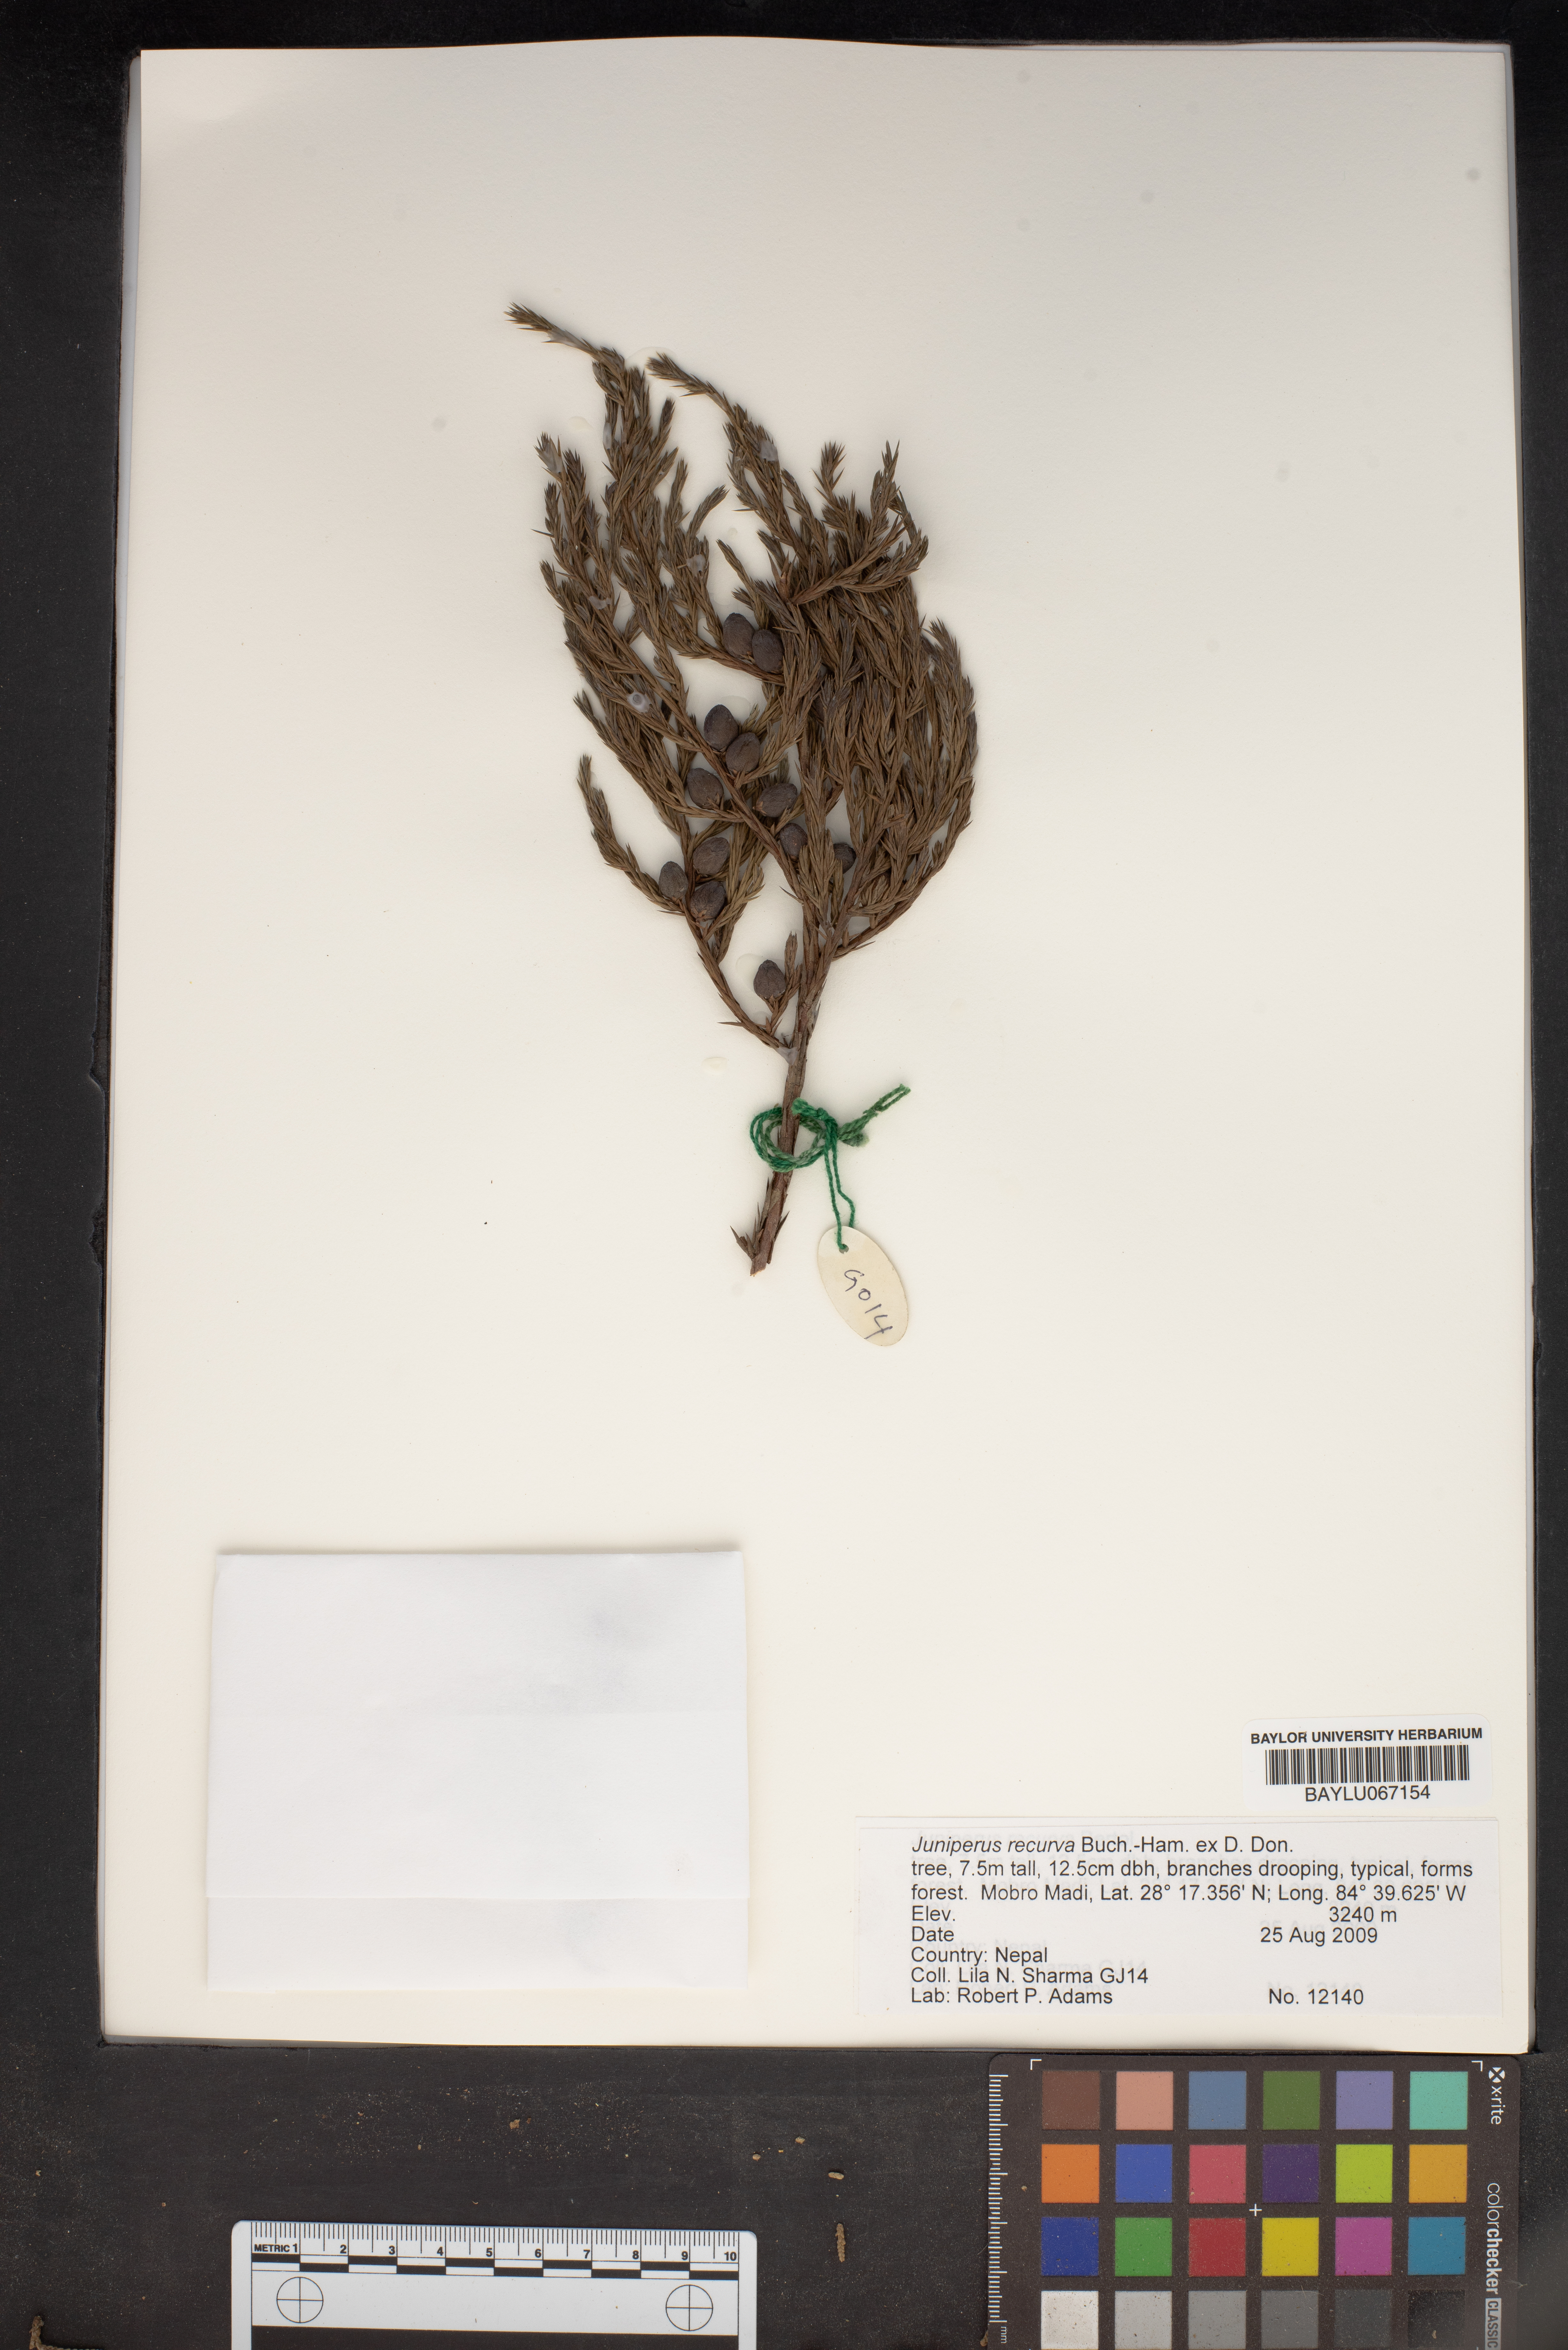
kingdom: Plantae
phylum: Tracheophyta
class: Pinopsida
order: Pinales
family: Cupressaceae
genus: Juniperus
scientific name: Juniperus recurva
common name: Drooping juniper
